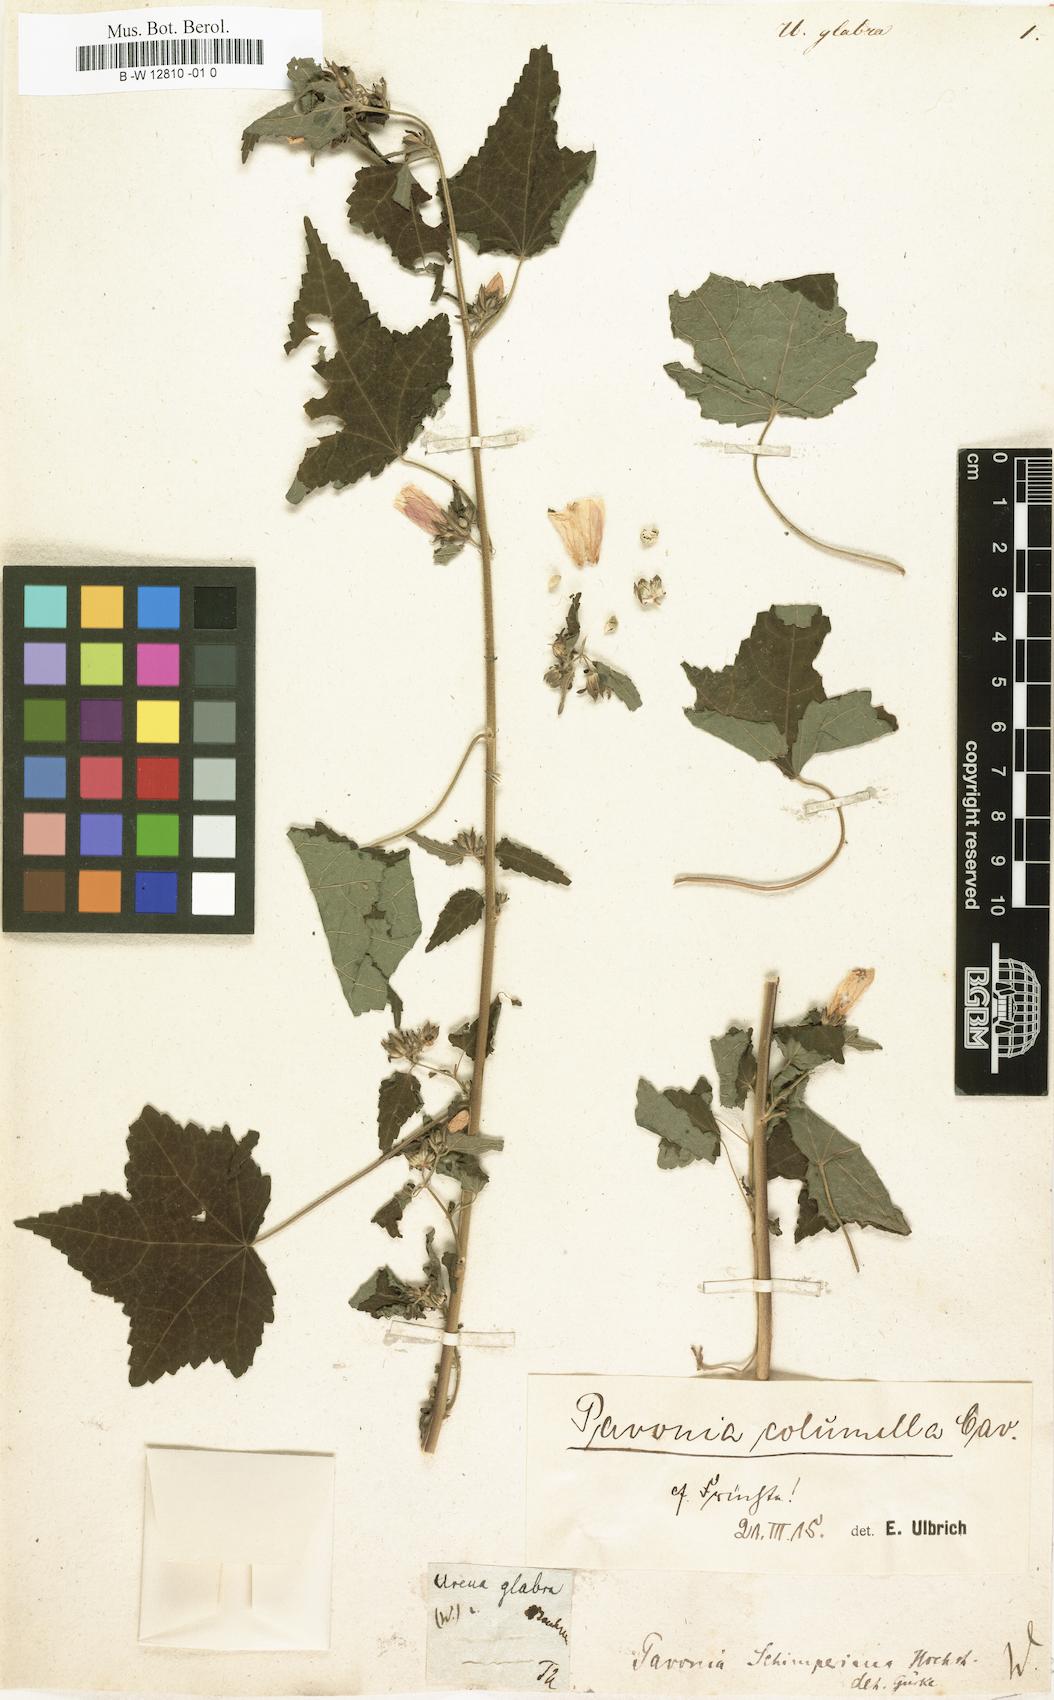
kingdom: Plantae
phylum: Tracheophyta
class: Magnoliopsida
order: Malvales
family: Malvaceae
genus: Pavonia
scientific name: Pavonia flavoferruginea
